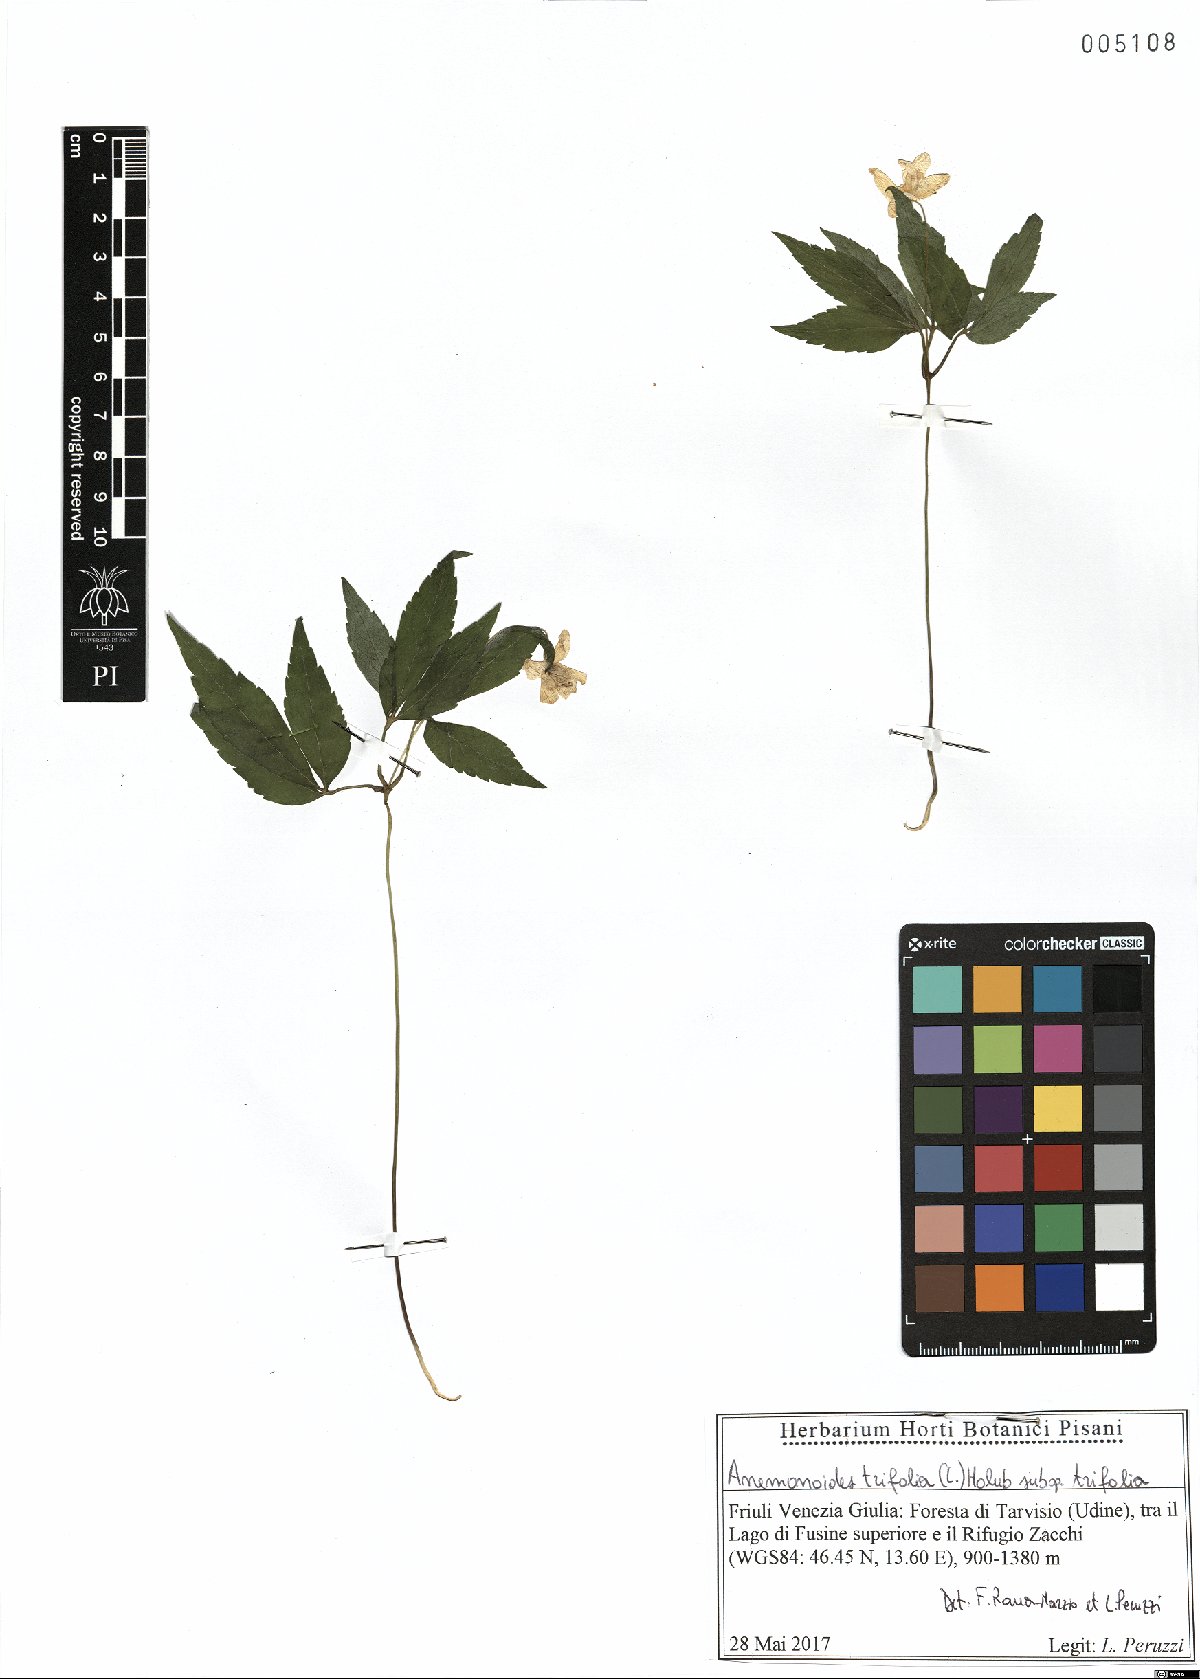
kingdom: Plantae
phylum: Tracheophyta
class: Magnoliopsida
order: Ranunculales
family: Ranunculaceae
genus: Anemone
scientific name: Anemone trifolia
